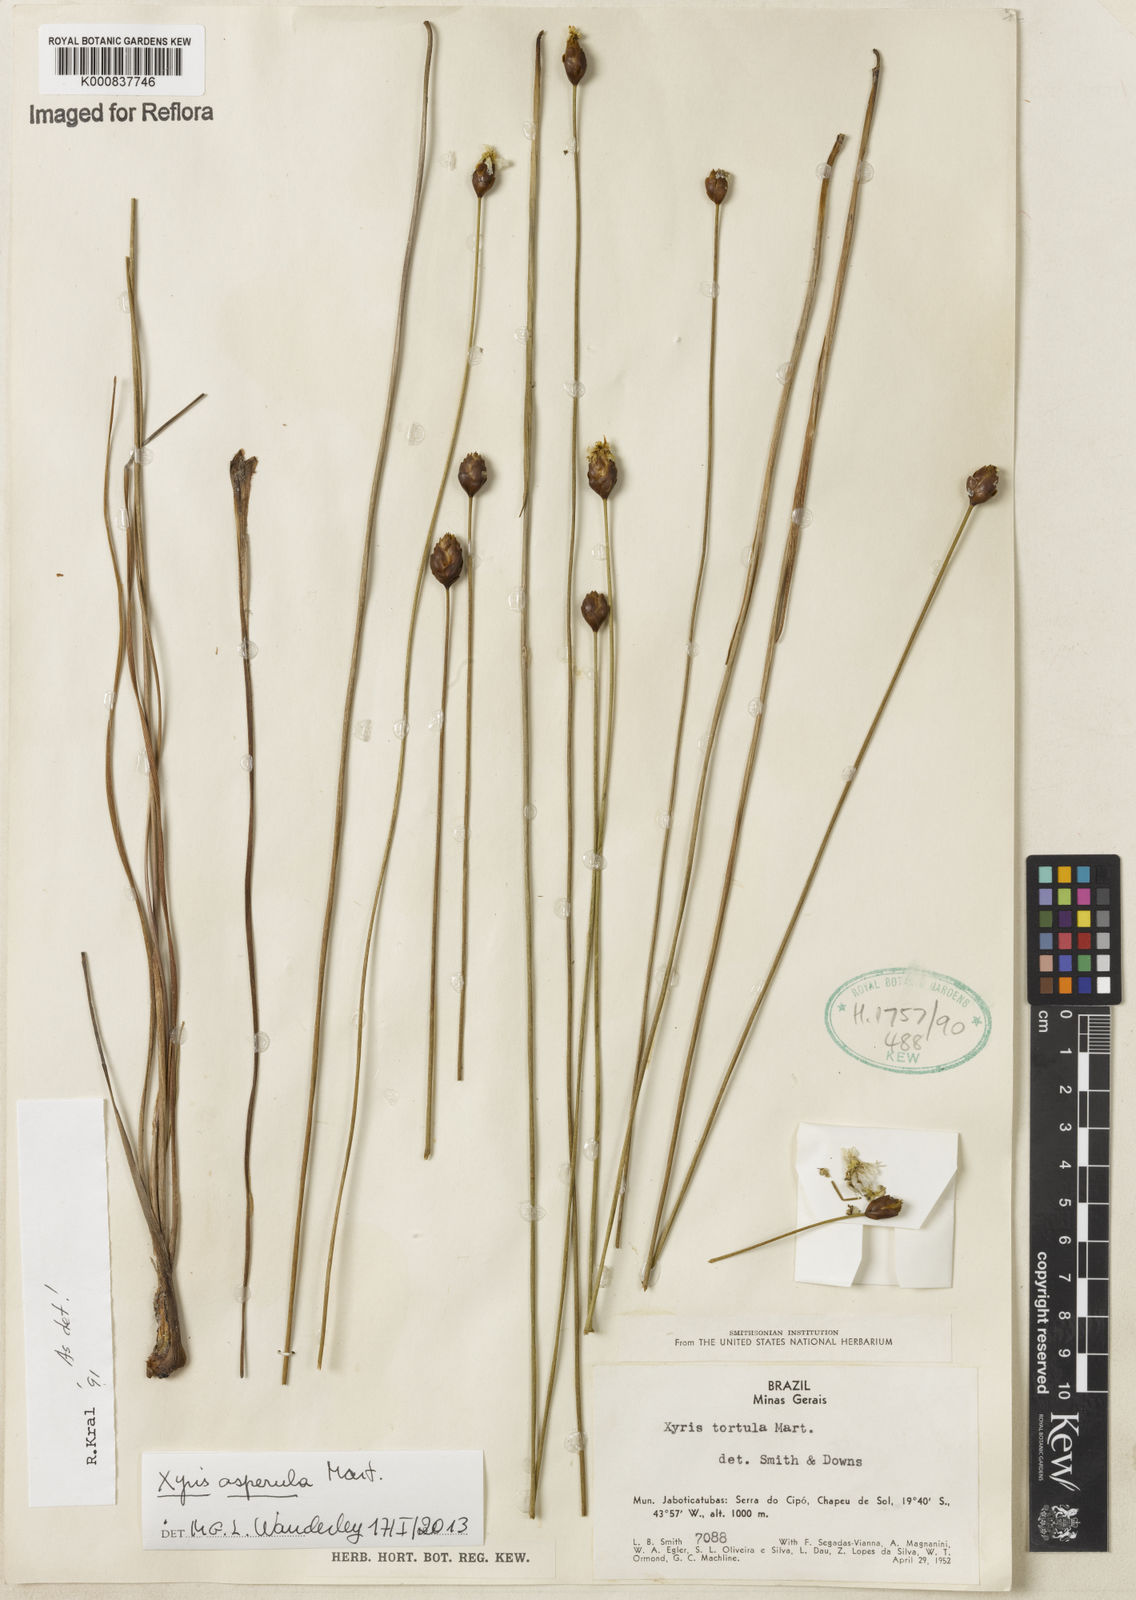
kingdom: Plantae
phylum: Tracheophyta
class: Liliopsida
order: Poales
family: Xyridaceae
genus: Xyris
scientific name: Xyris asperula
